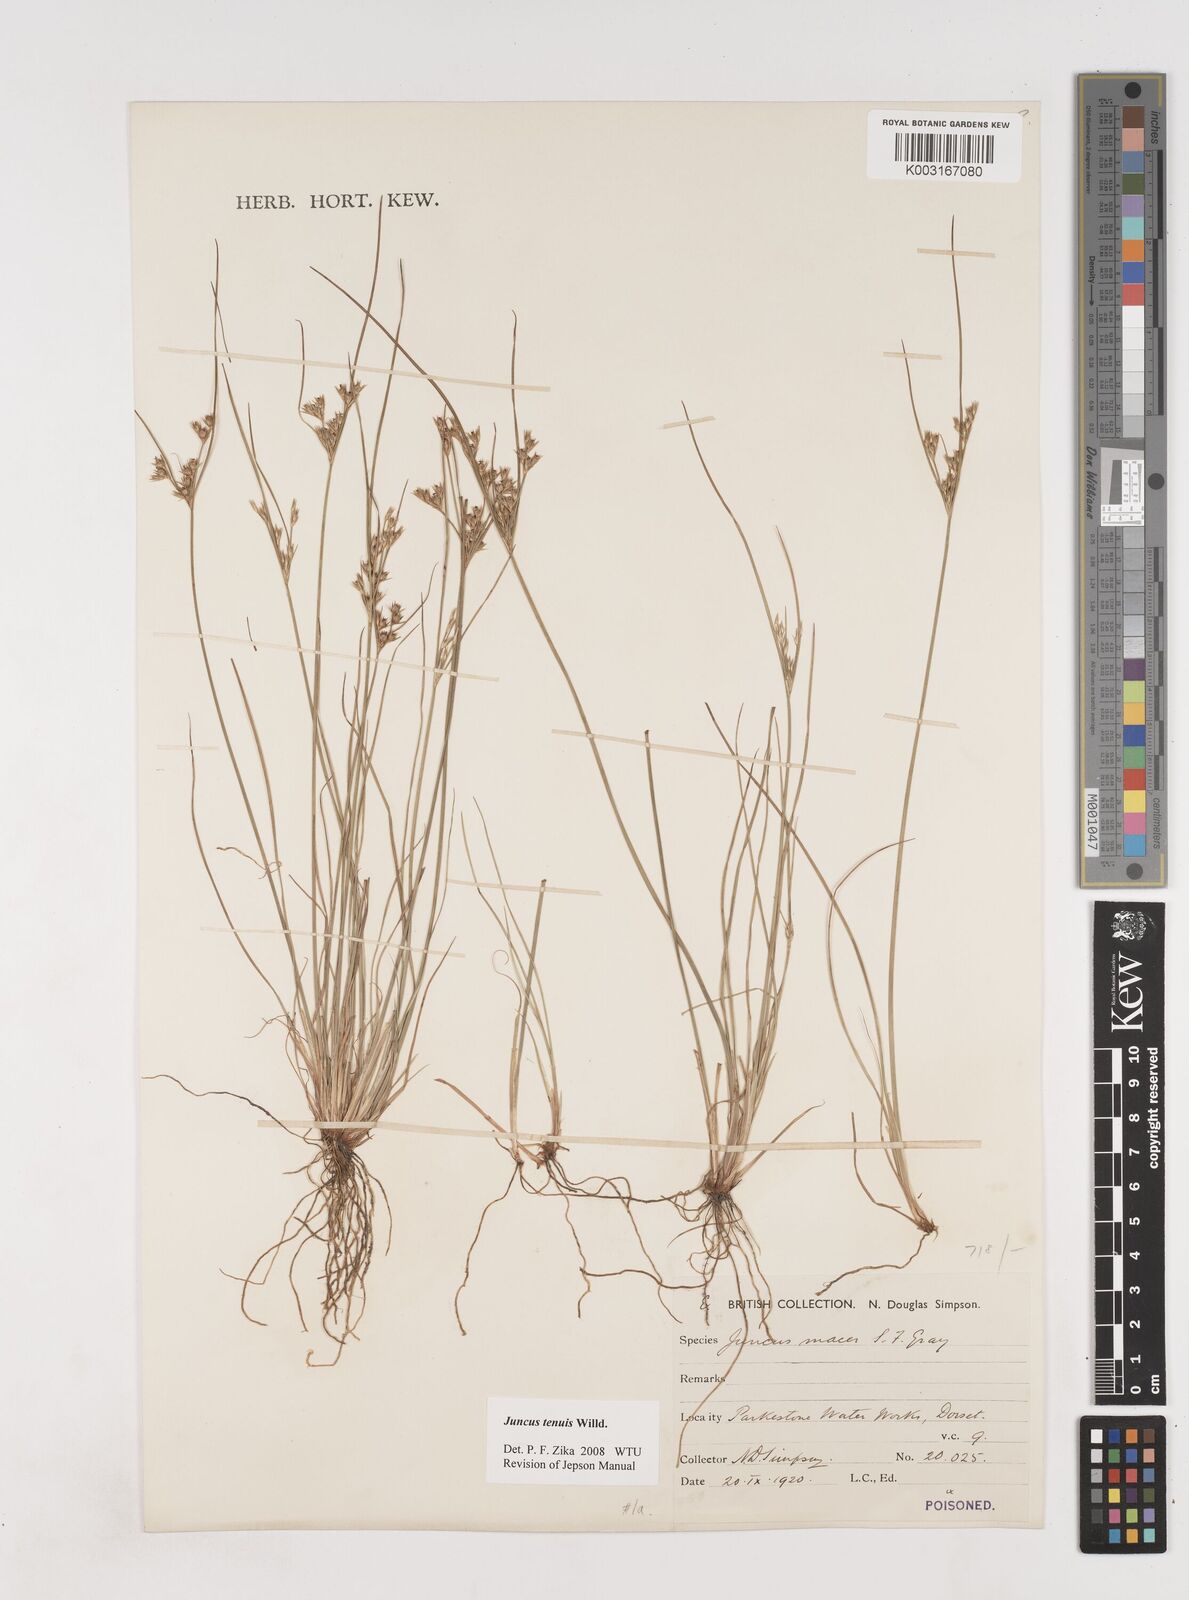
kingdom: Plantae
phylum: Tracheophyta
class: Liliopsida
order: Poales
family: Juncaceae
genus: Juncus
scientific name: Juncus tenuis
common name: Slender rush
